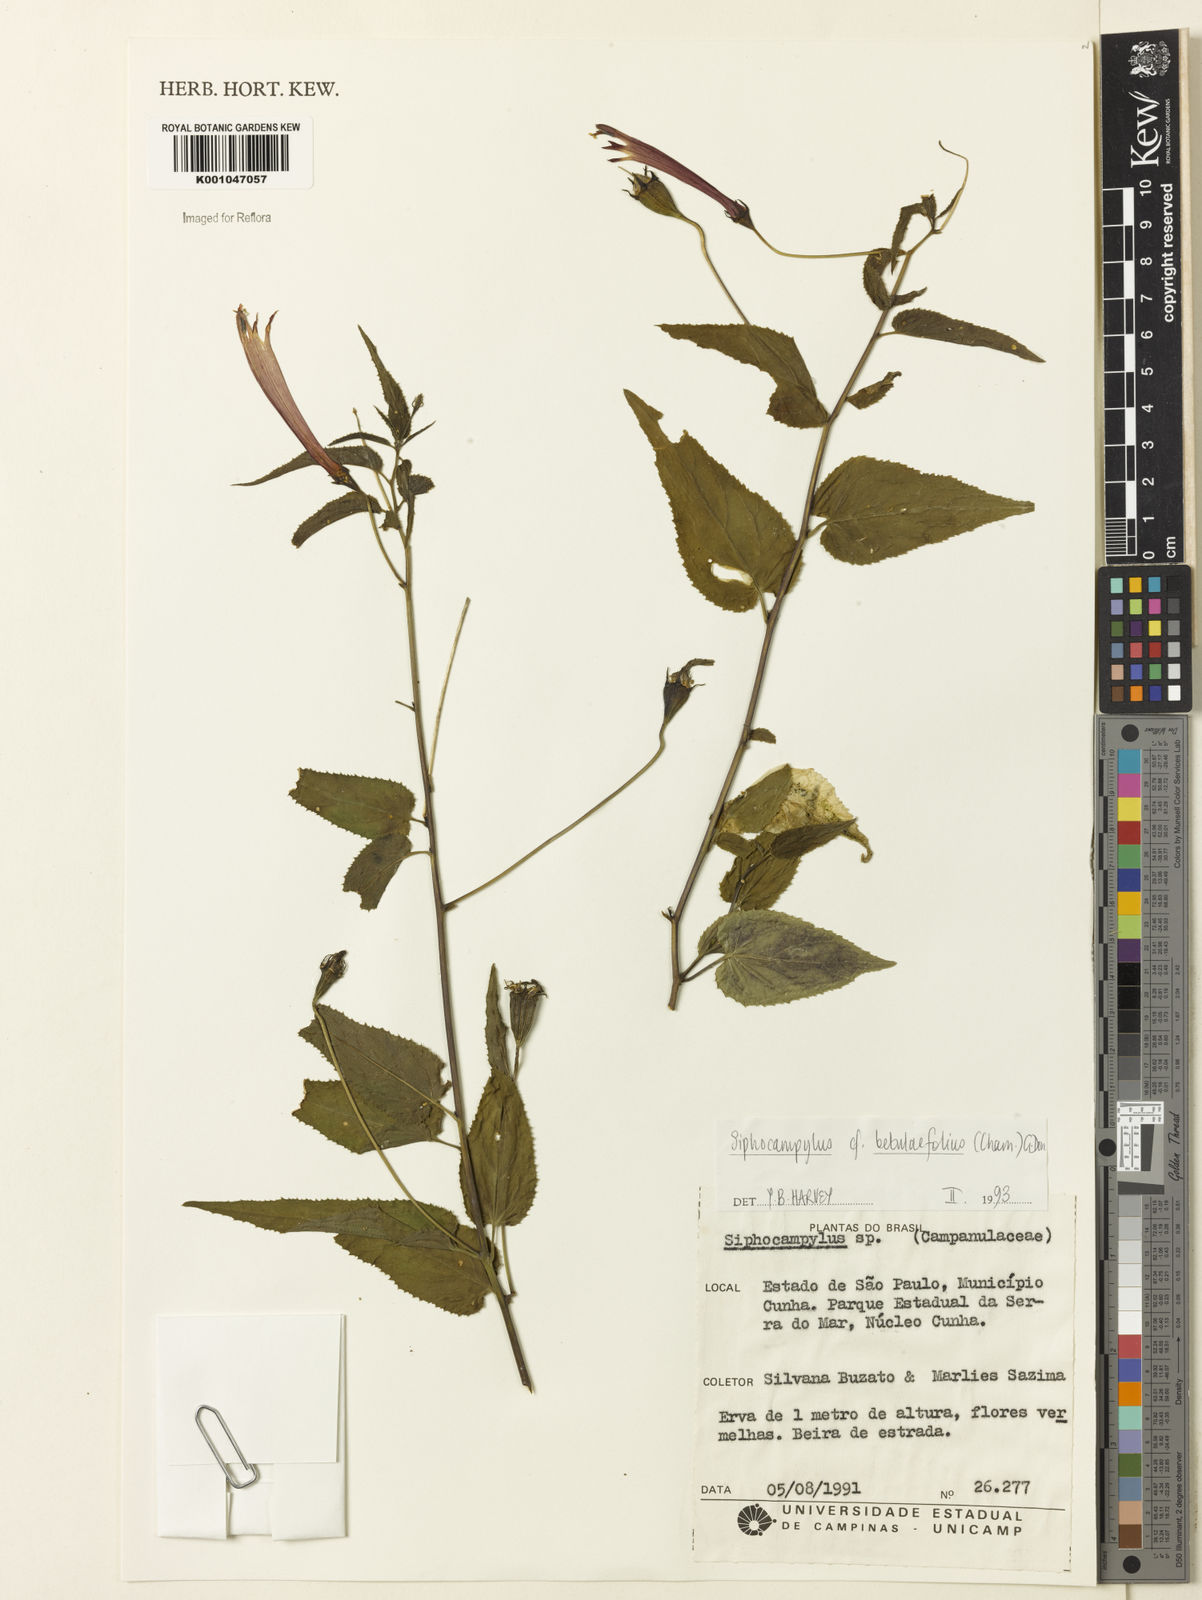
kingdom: Plantae
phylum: Tracheophyta
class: Magnoliopsida
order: Asterales
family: Campanulaceae
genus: Siphocampylus
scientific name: Siphocampylus betulifolius
